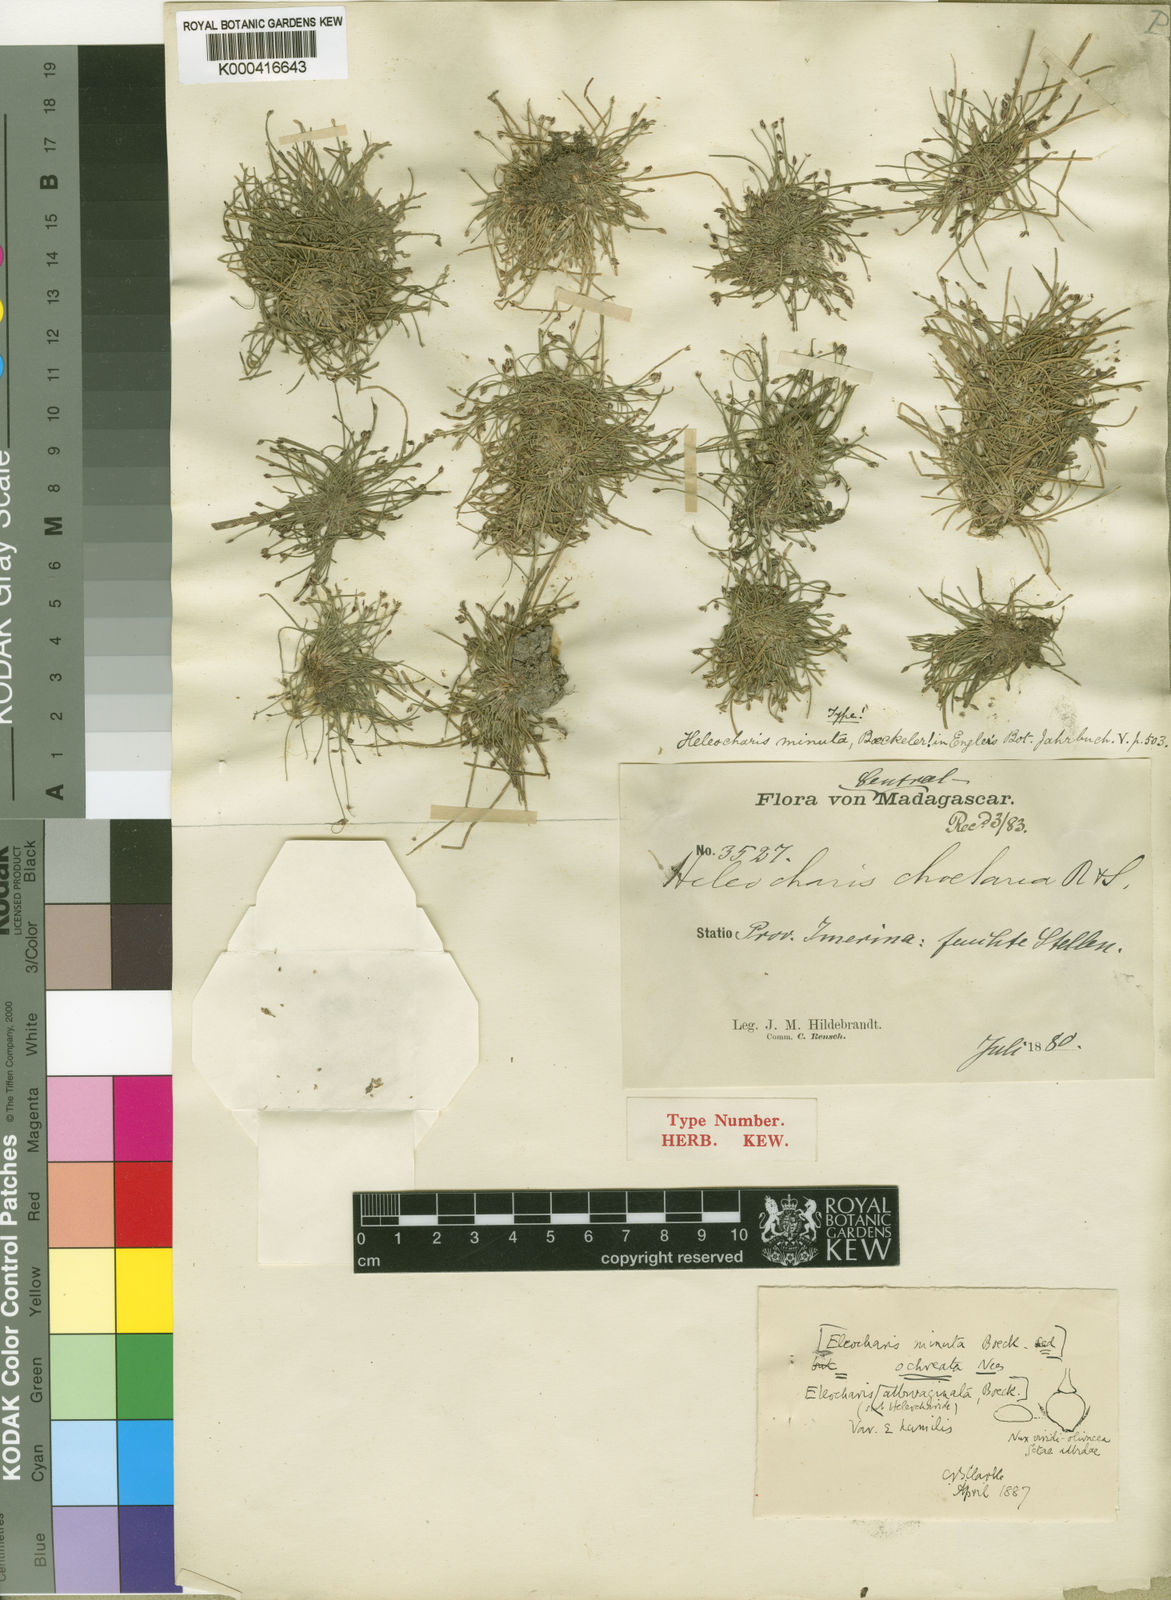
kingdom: Plantae
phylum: Tracheophyta
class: Liliopsida
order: Poales
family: Cyperaceae
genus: Eleocharis
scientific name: Eleocharis minuta
